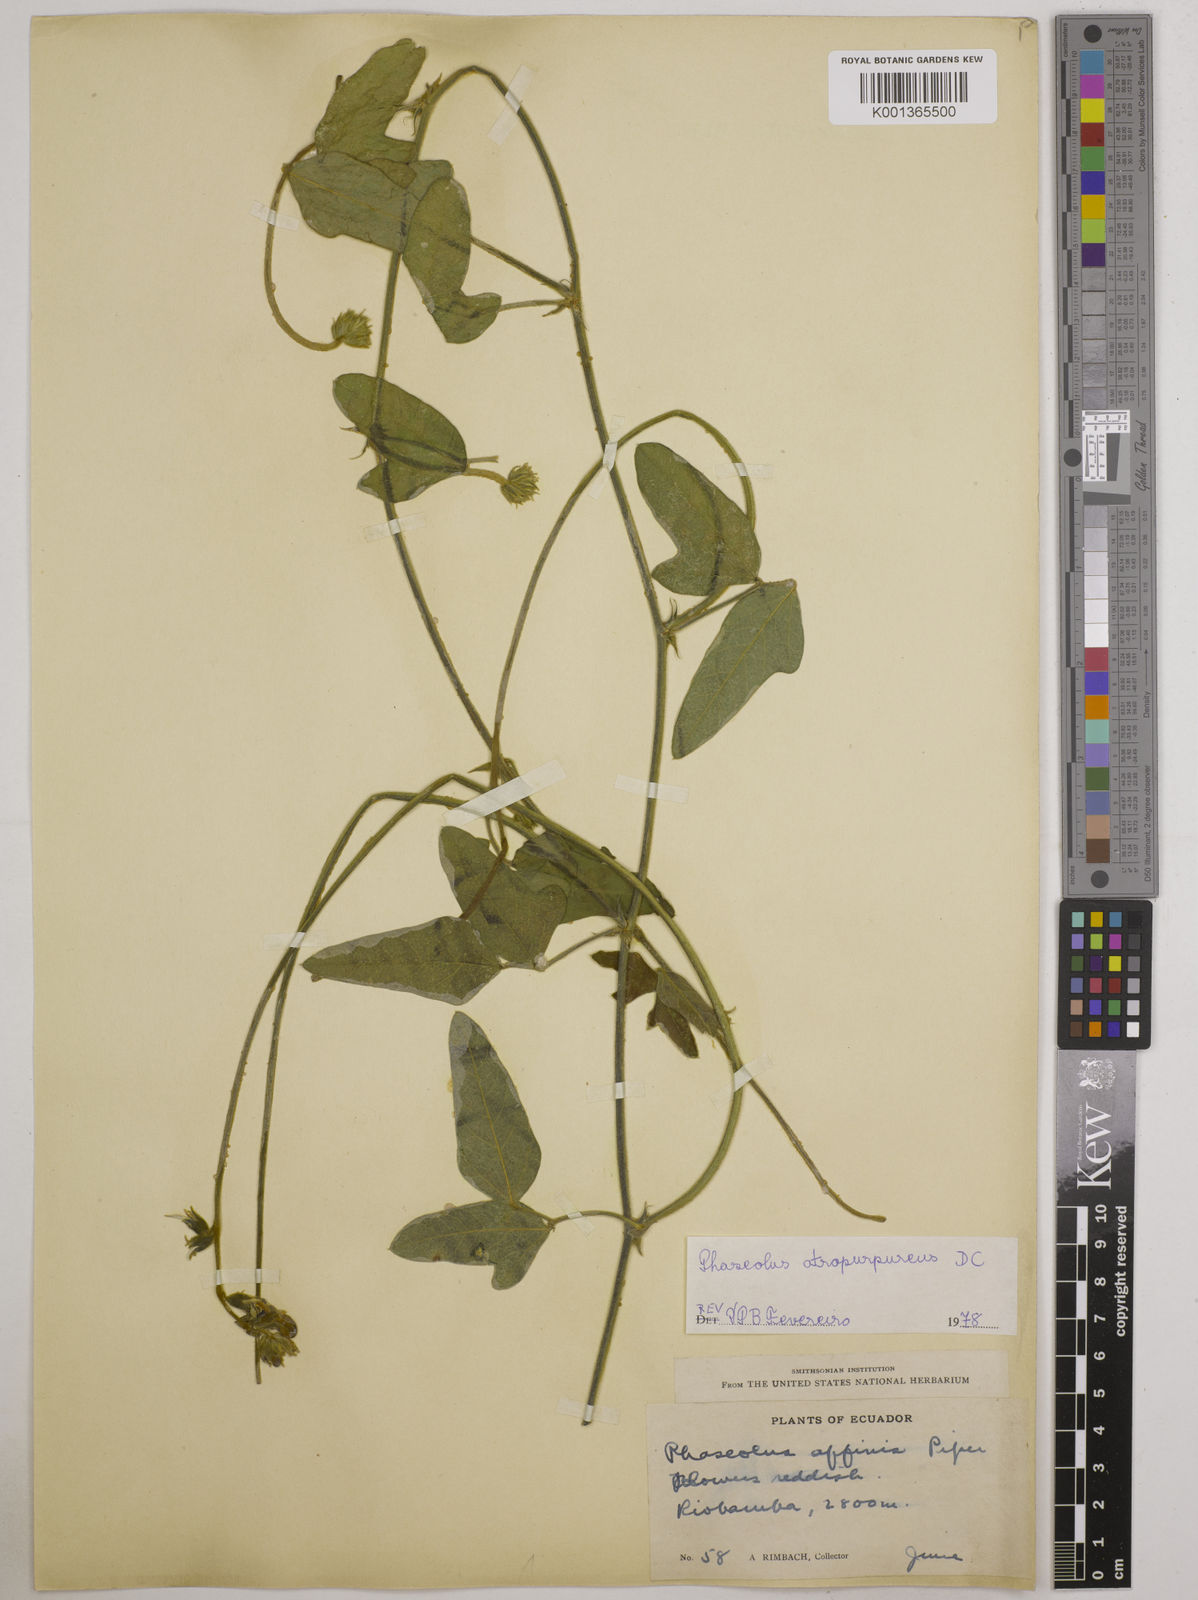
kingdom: Plantae
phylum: Tracheophyta
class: Magnoliopsida
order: Fabales
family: Fabaceae
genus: Macroptilium
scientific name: Macroptilium atropurpureum
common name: Purple bushbean
